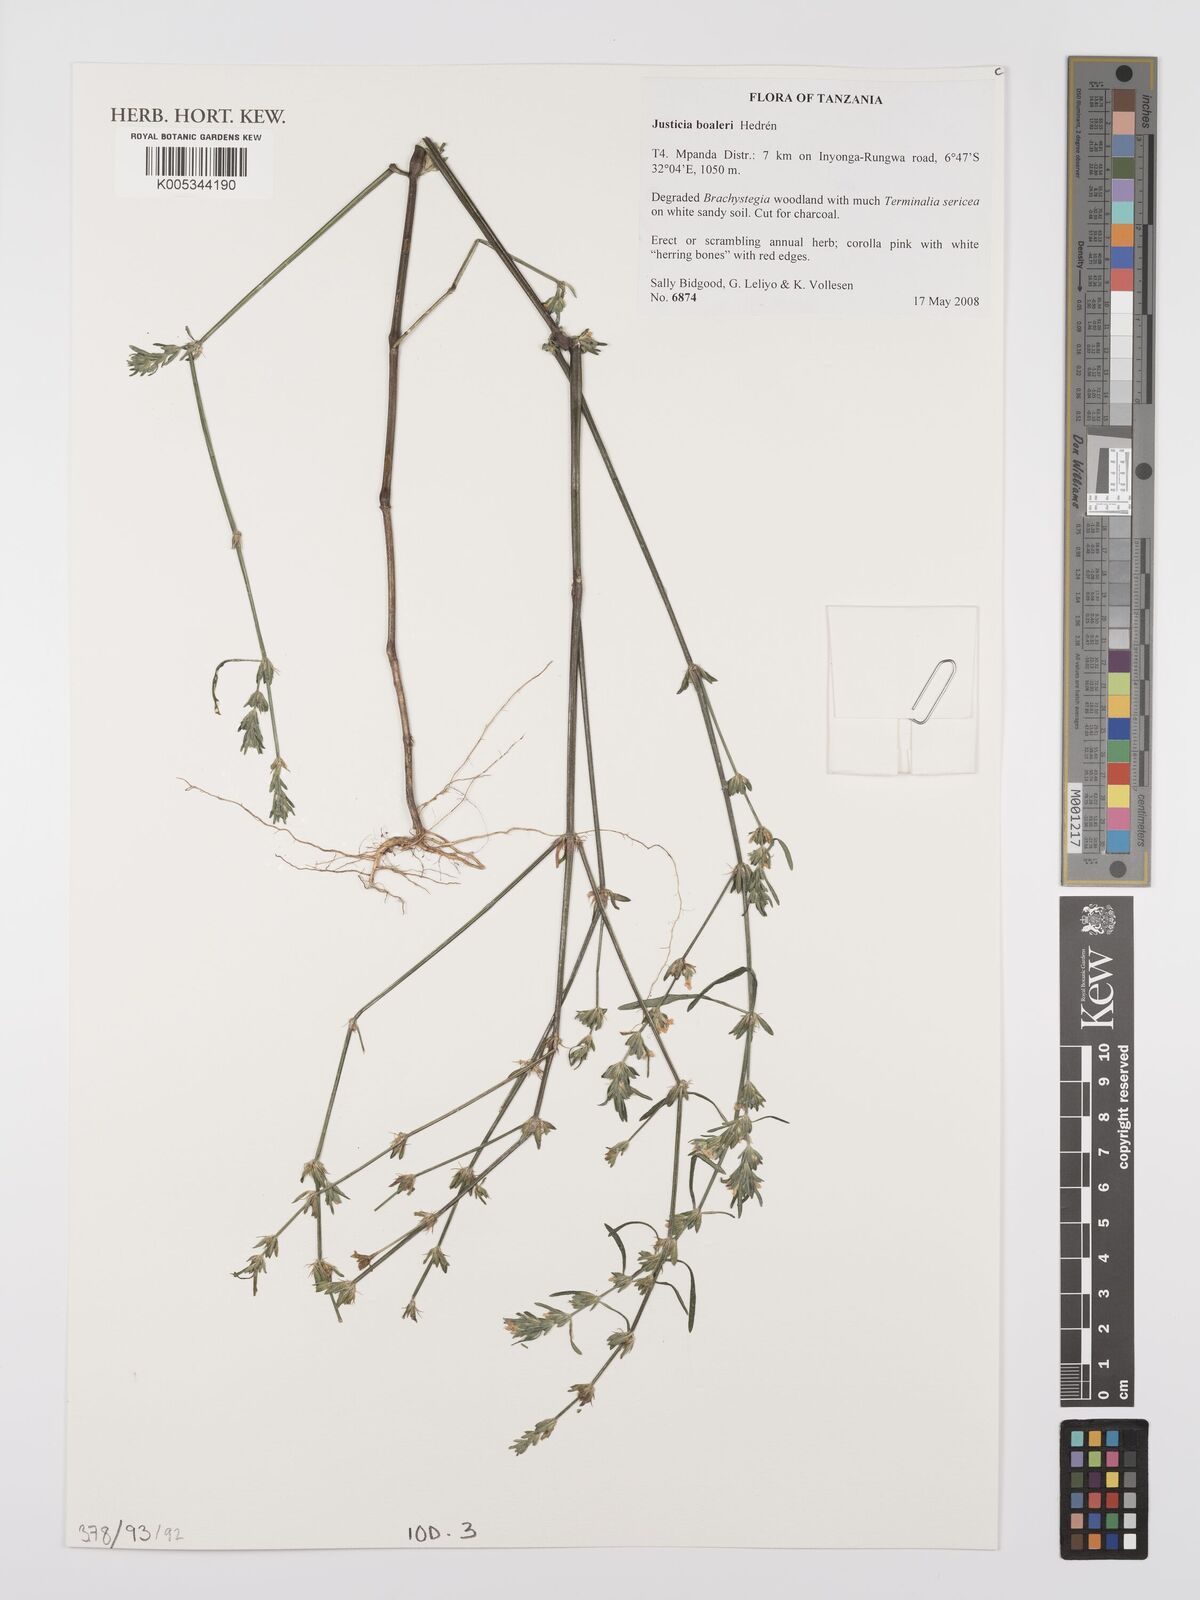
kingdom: Plantae
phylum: Tracheophyta
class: Magnoliopsida
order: Lamiales
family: Acanthaceae
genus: Justicia
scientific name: Justicia boaleri
